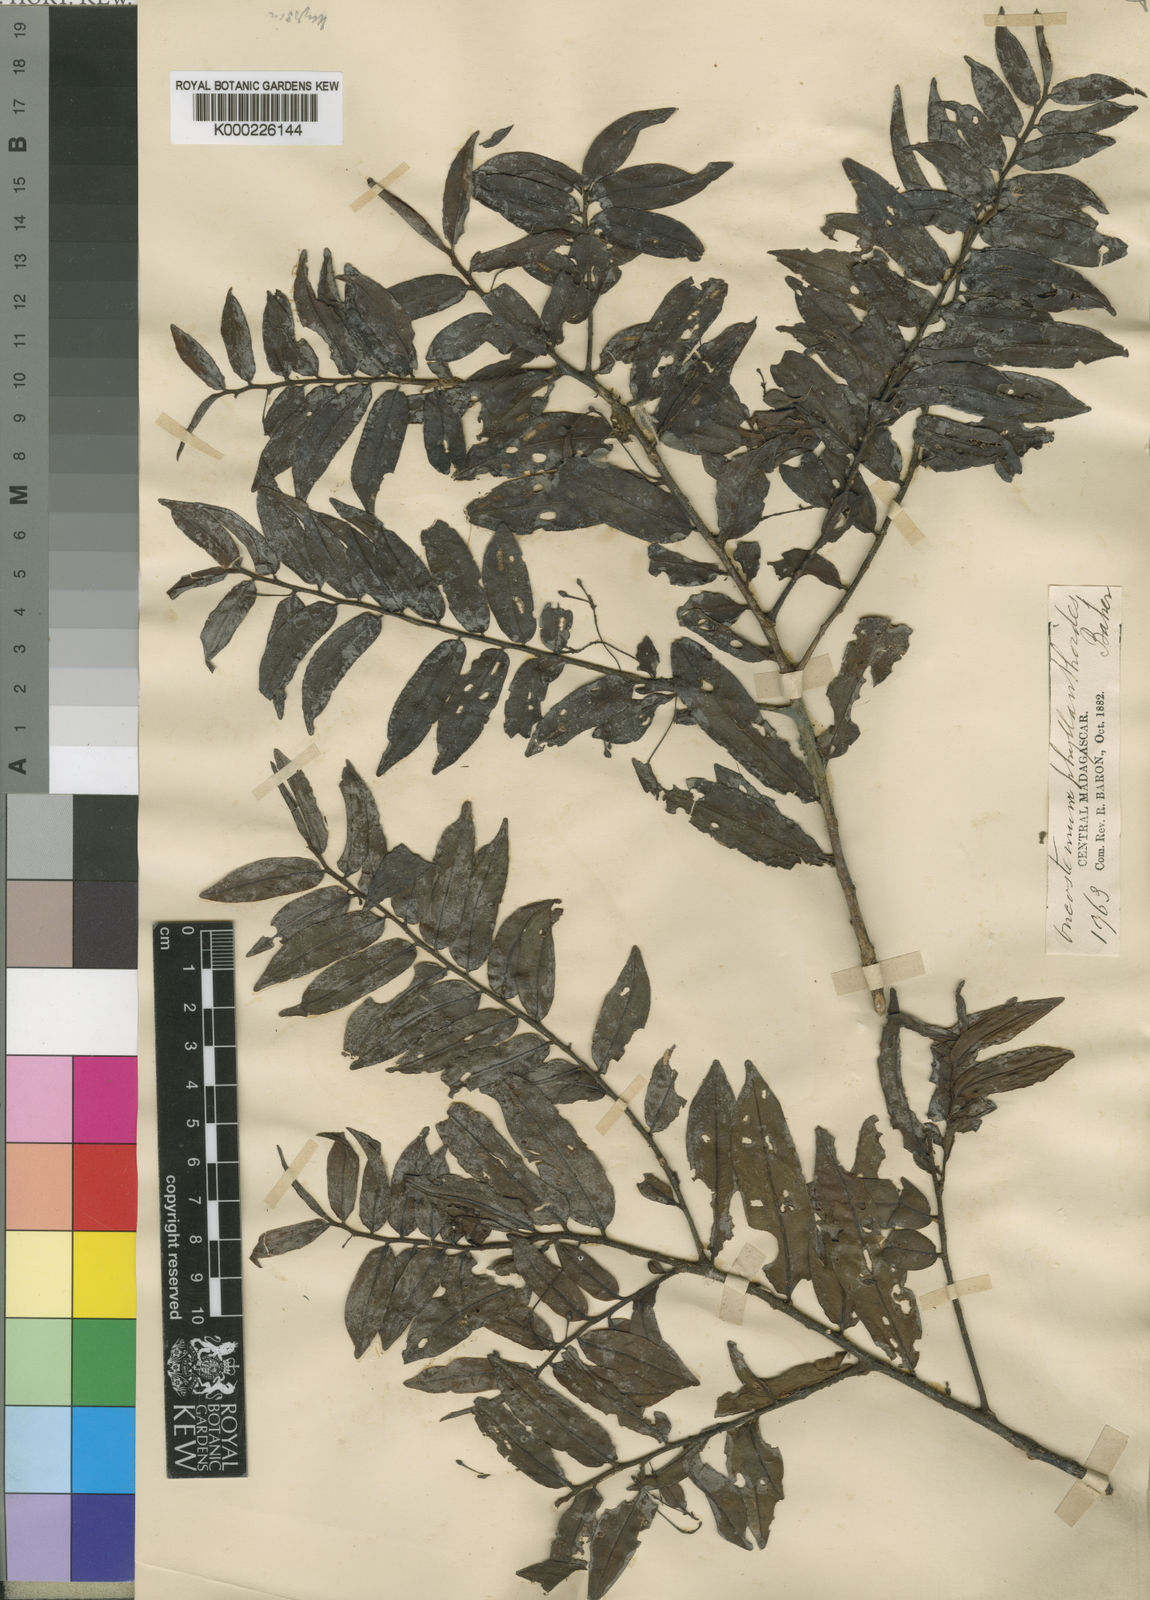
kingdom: Plantae
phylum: Tracheophyta
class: Magnoliopsida
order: Ericales
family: Primulaceae
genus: Oncostemum
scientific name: Oncostemum
